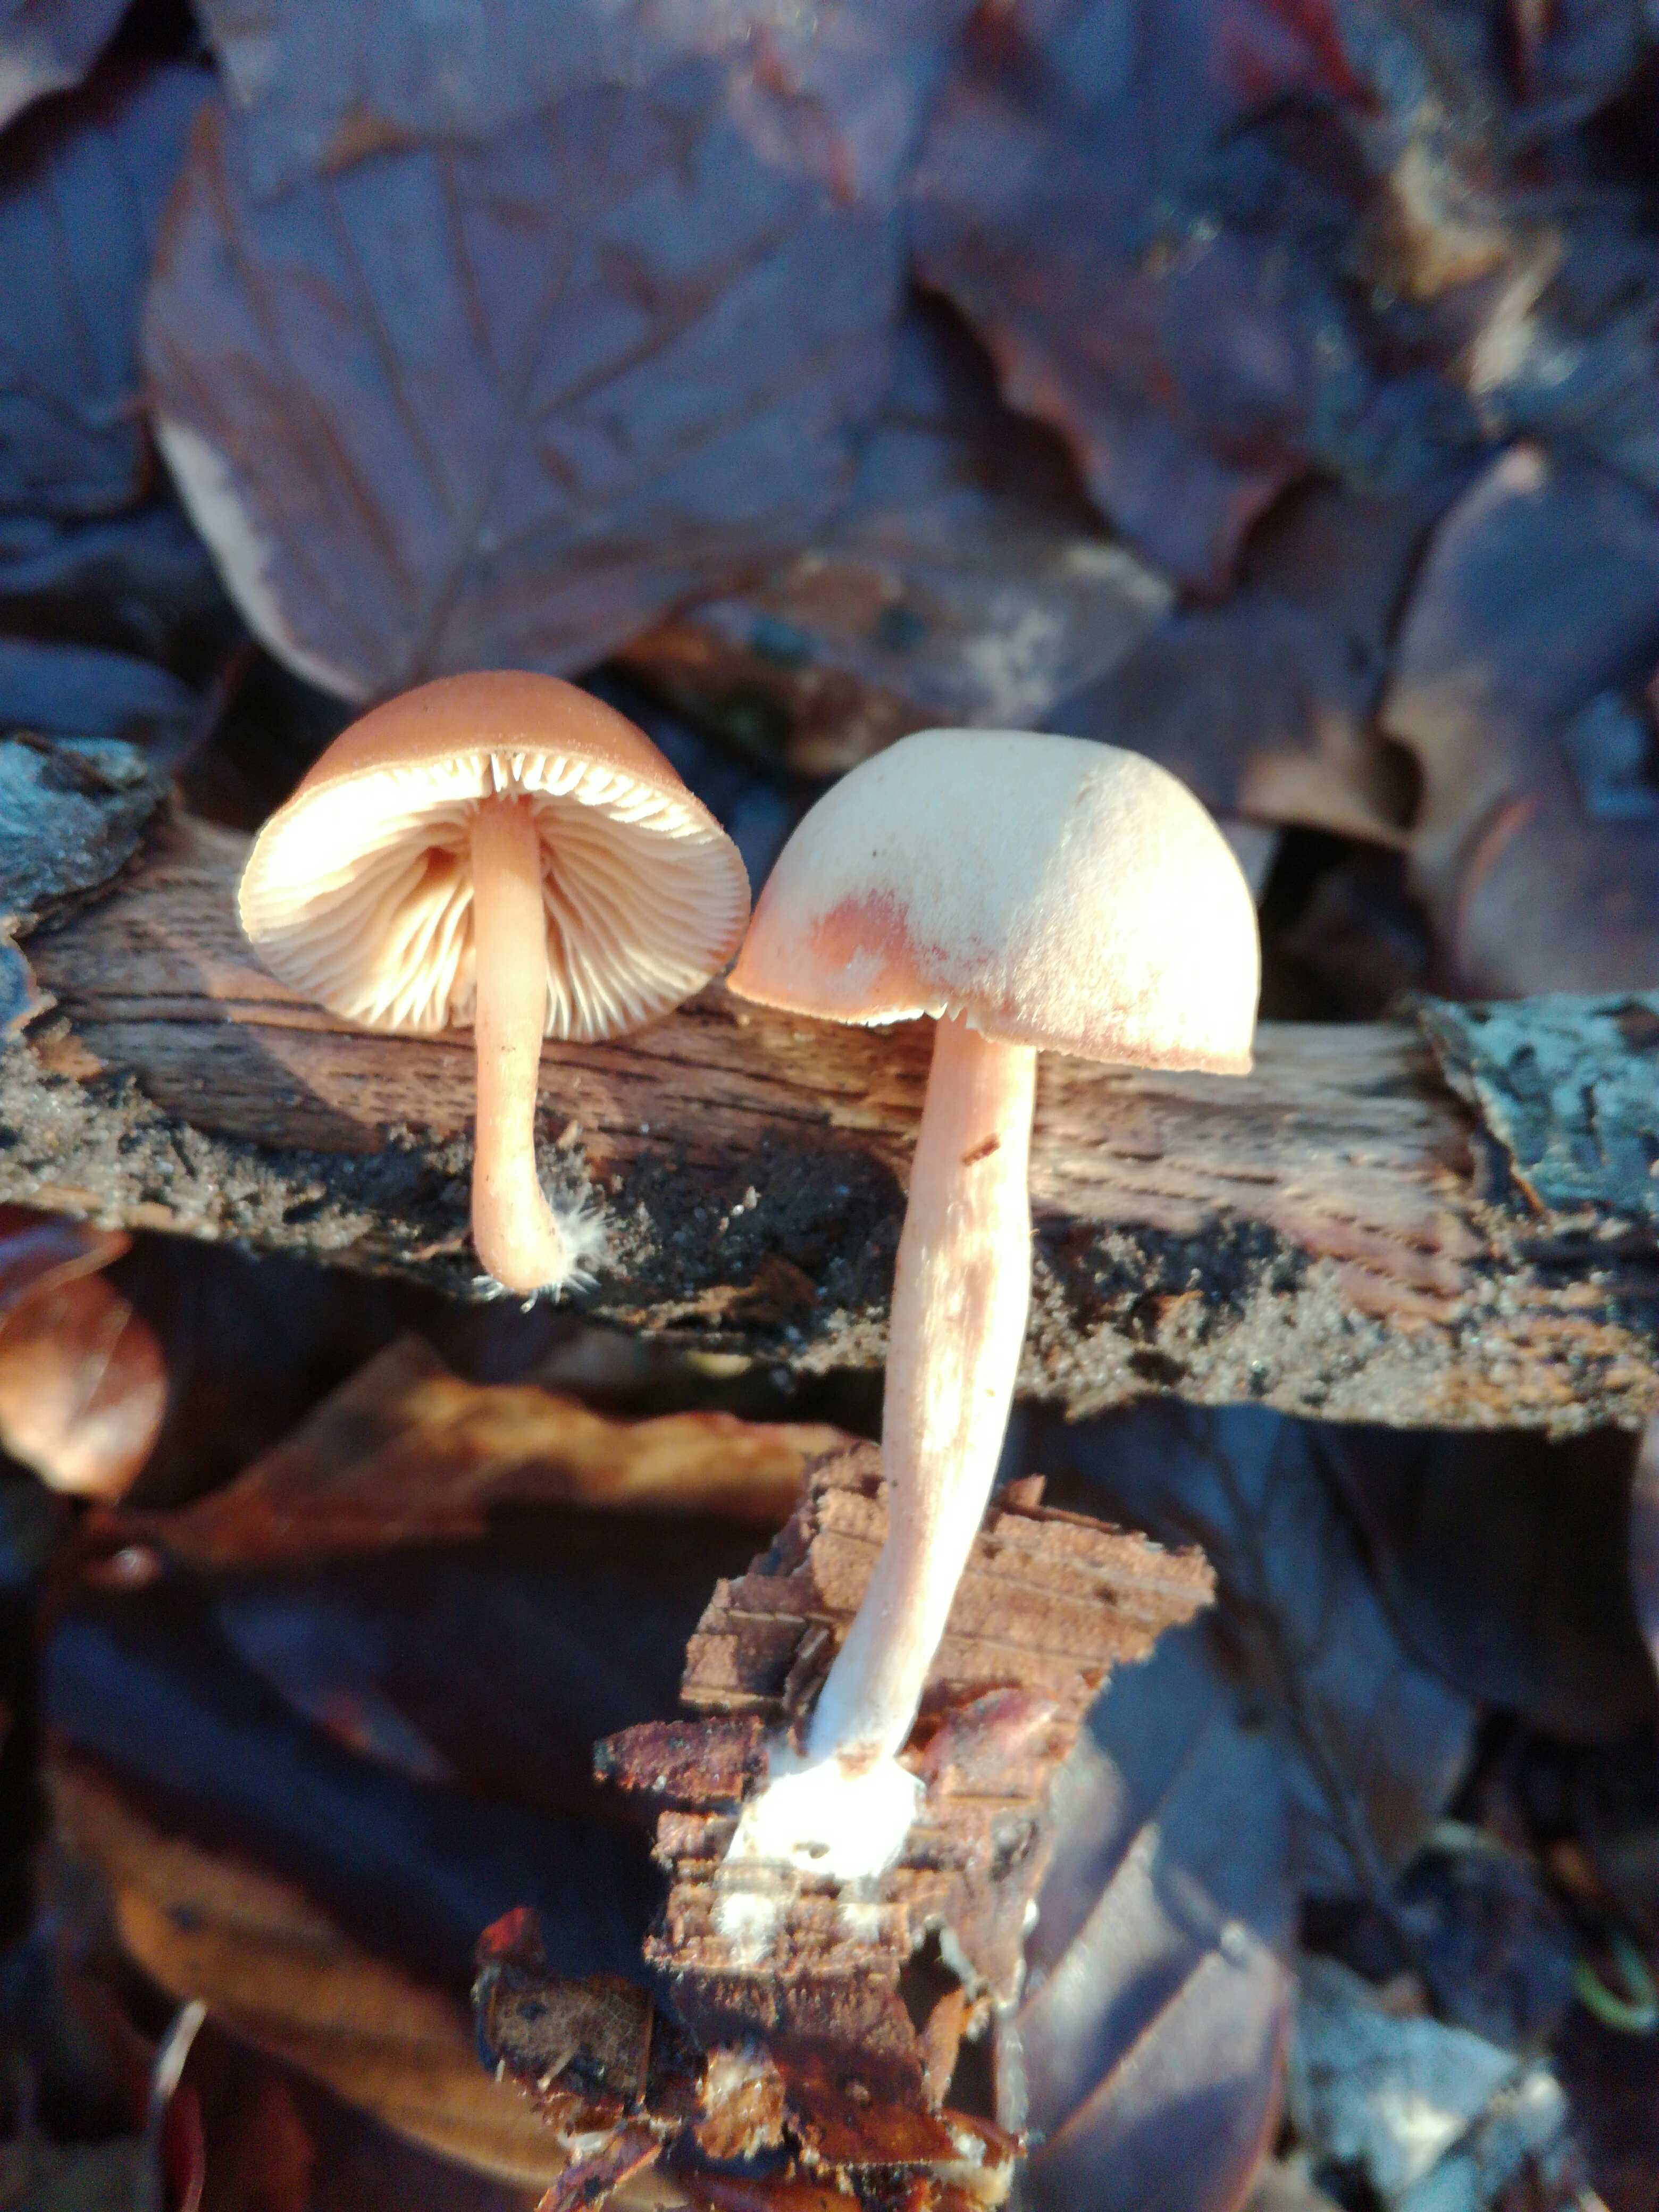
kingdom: Fungi
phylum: Basidiomycota
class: Agaricomycetes
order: Agaricales
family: Tubariaceae
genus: Tubaria
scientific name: Tubaria
